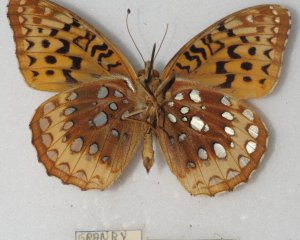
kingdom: Animalia
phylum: Arthropoda
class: Insecta
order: Lepidoptera
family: Nymphalidae
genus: Speyeria
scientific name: Speyeria cybele
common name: Great Spangled Fritillary
